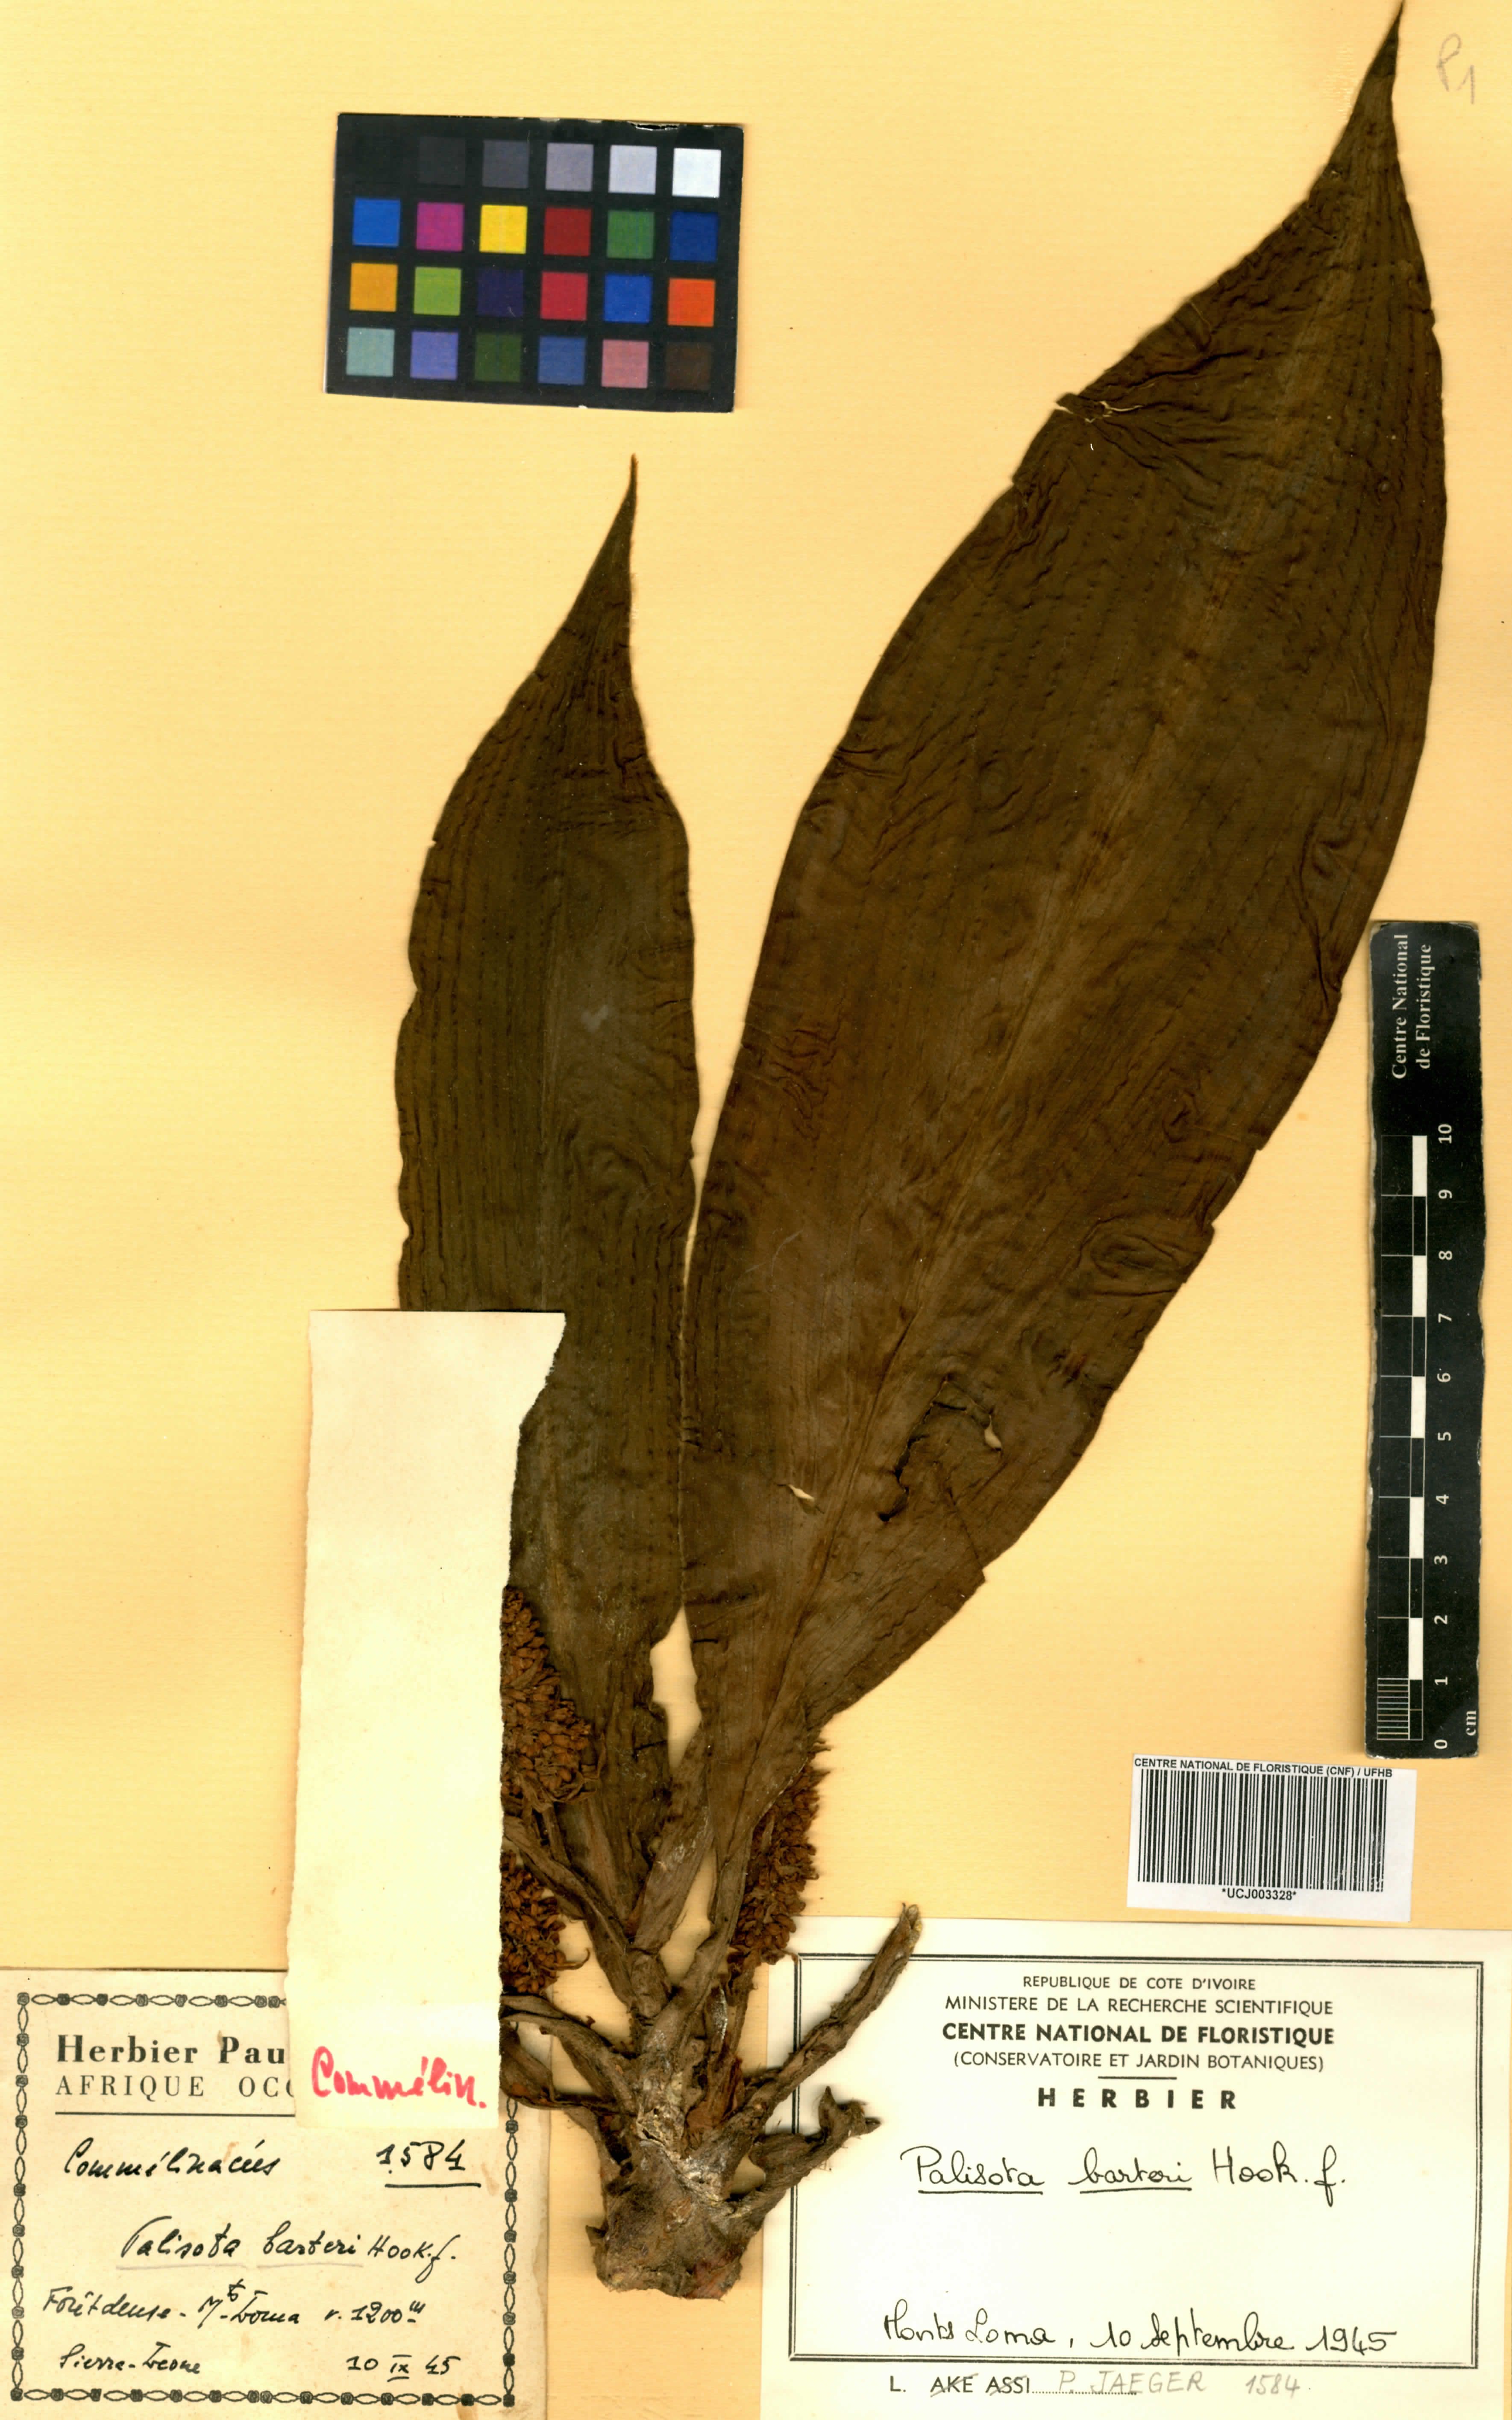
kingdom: Plantae
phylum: Tracheophyta
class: Liliopsida
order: Commelinales
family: Commelinaceae
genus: Palisota
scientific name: Palisota barteri
